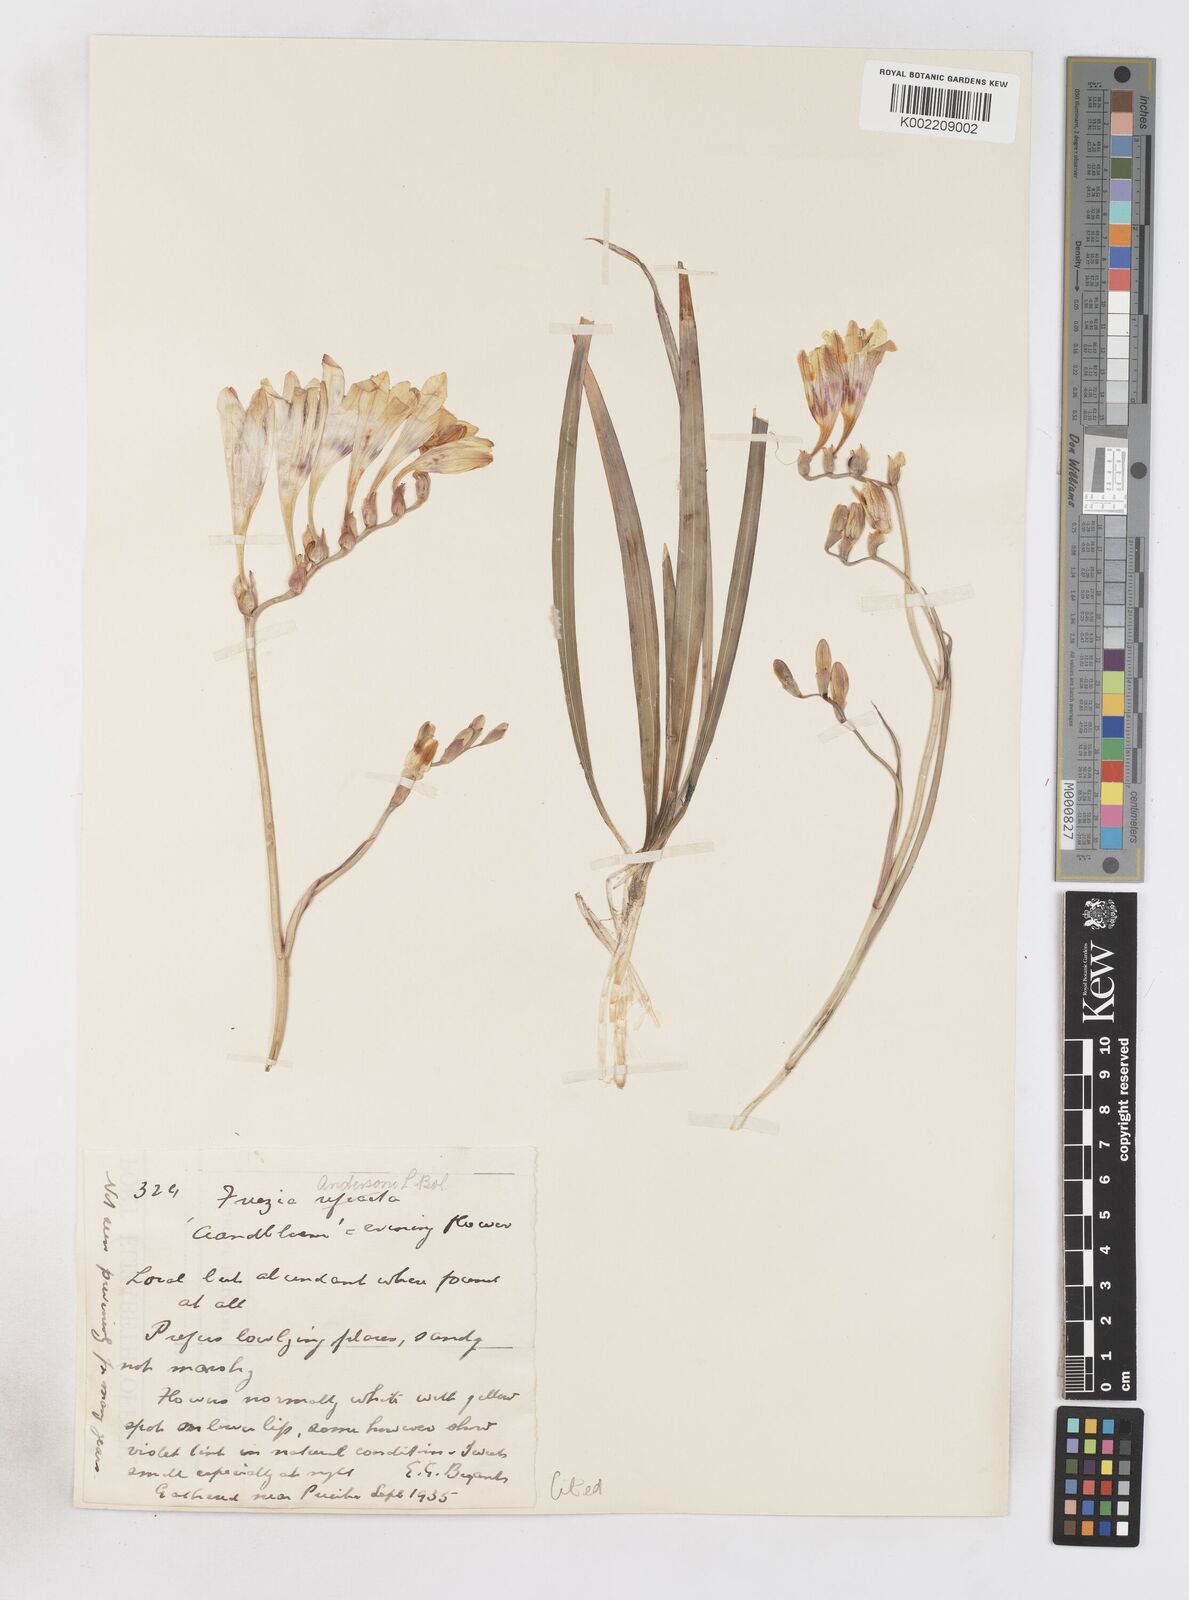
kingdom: Plantae
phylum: Tracheophyta
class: Liliopsida
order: Asparagales
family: Iridaceae
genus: Freesia
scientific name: Freesia andersoniae
